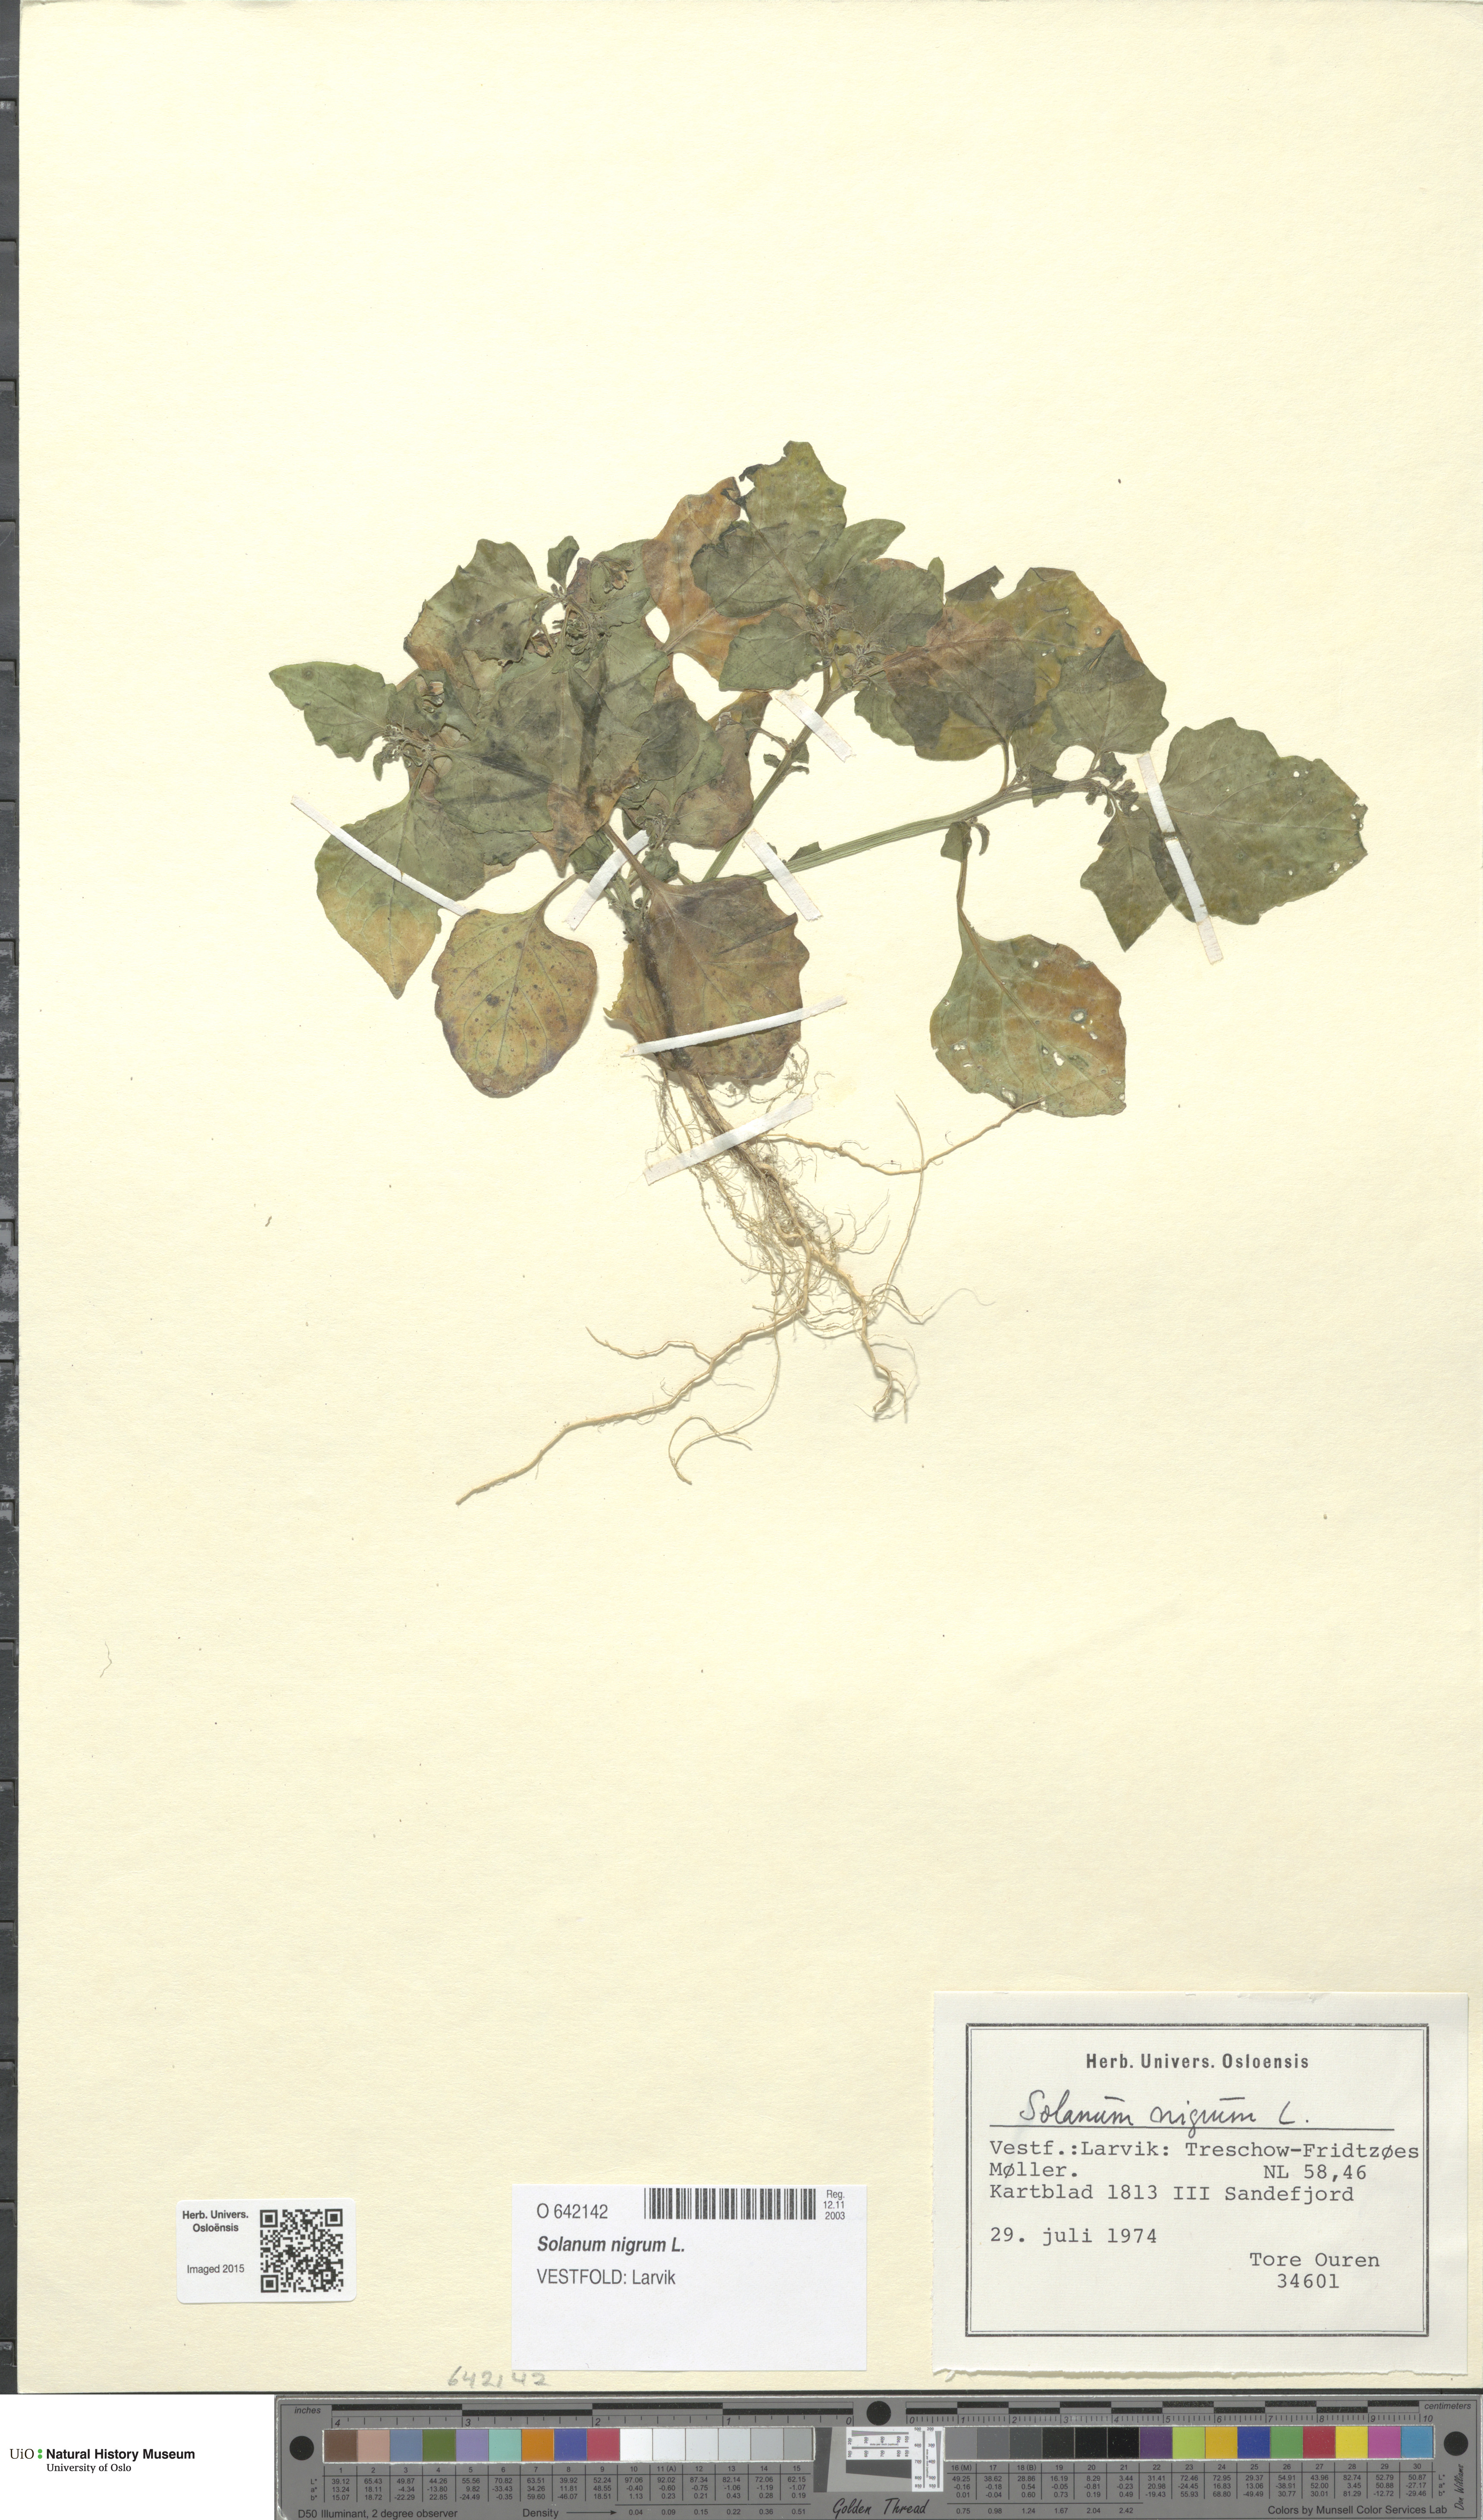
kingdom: Plantae
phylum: Tracheophyta
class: Magnoliopsida
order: Solanales
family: Solanaceae
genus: Solanum
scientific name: Solanum nigrum
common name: Black nightshade
